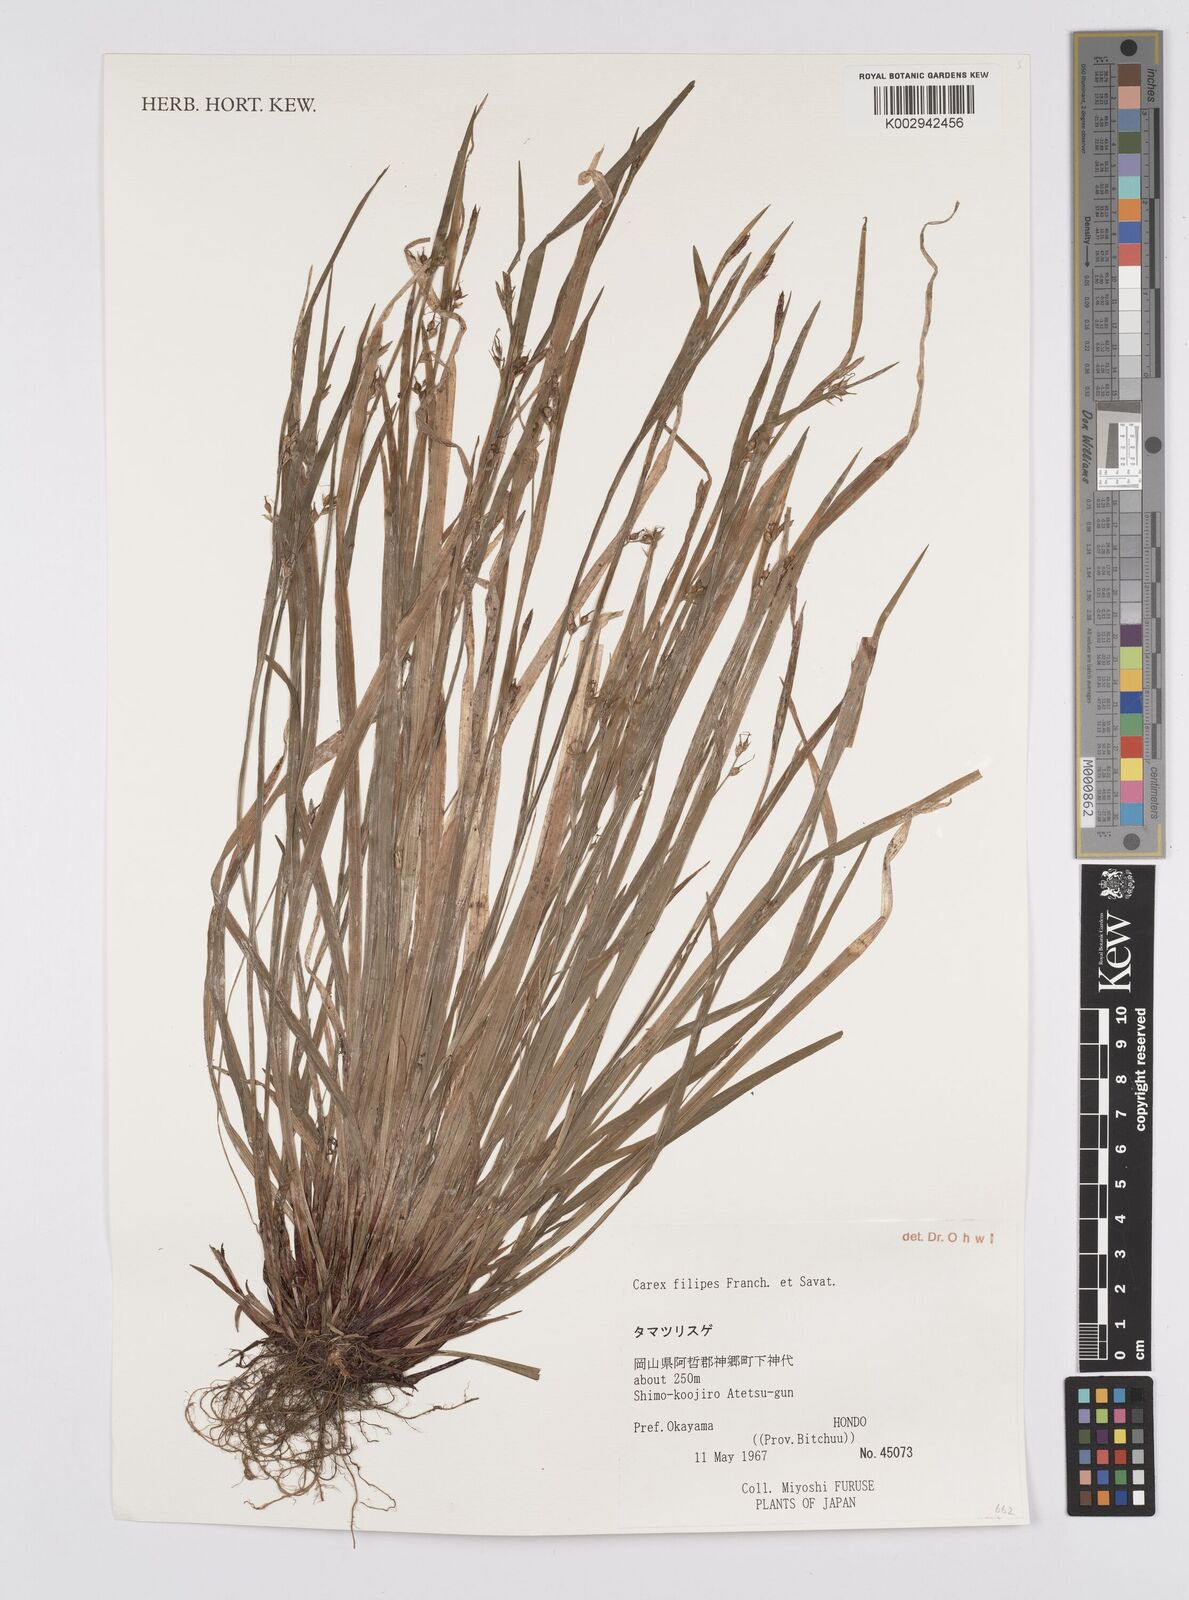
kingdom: Plantae
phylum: Tracheophyta
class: Liliopsida
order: Poales
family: Cyperaceae
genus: Carex
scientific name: Carex filipes
